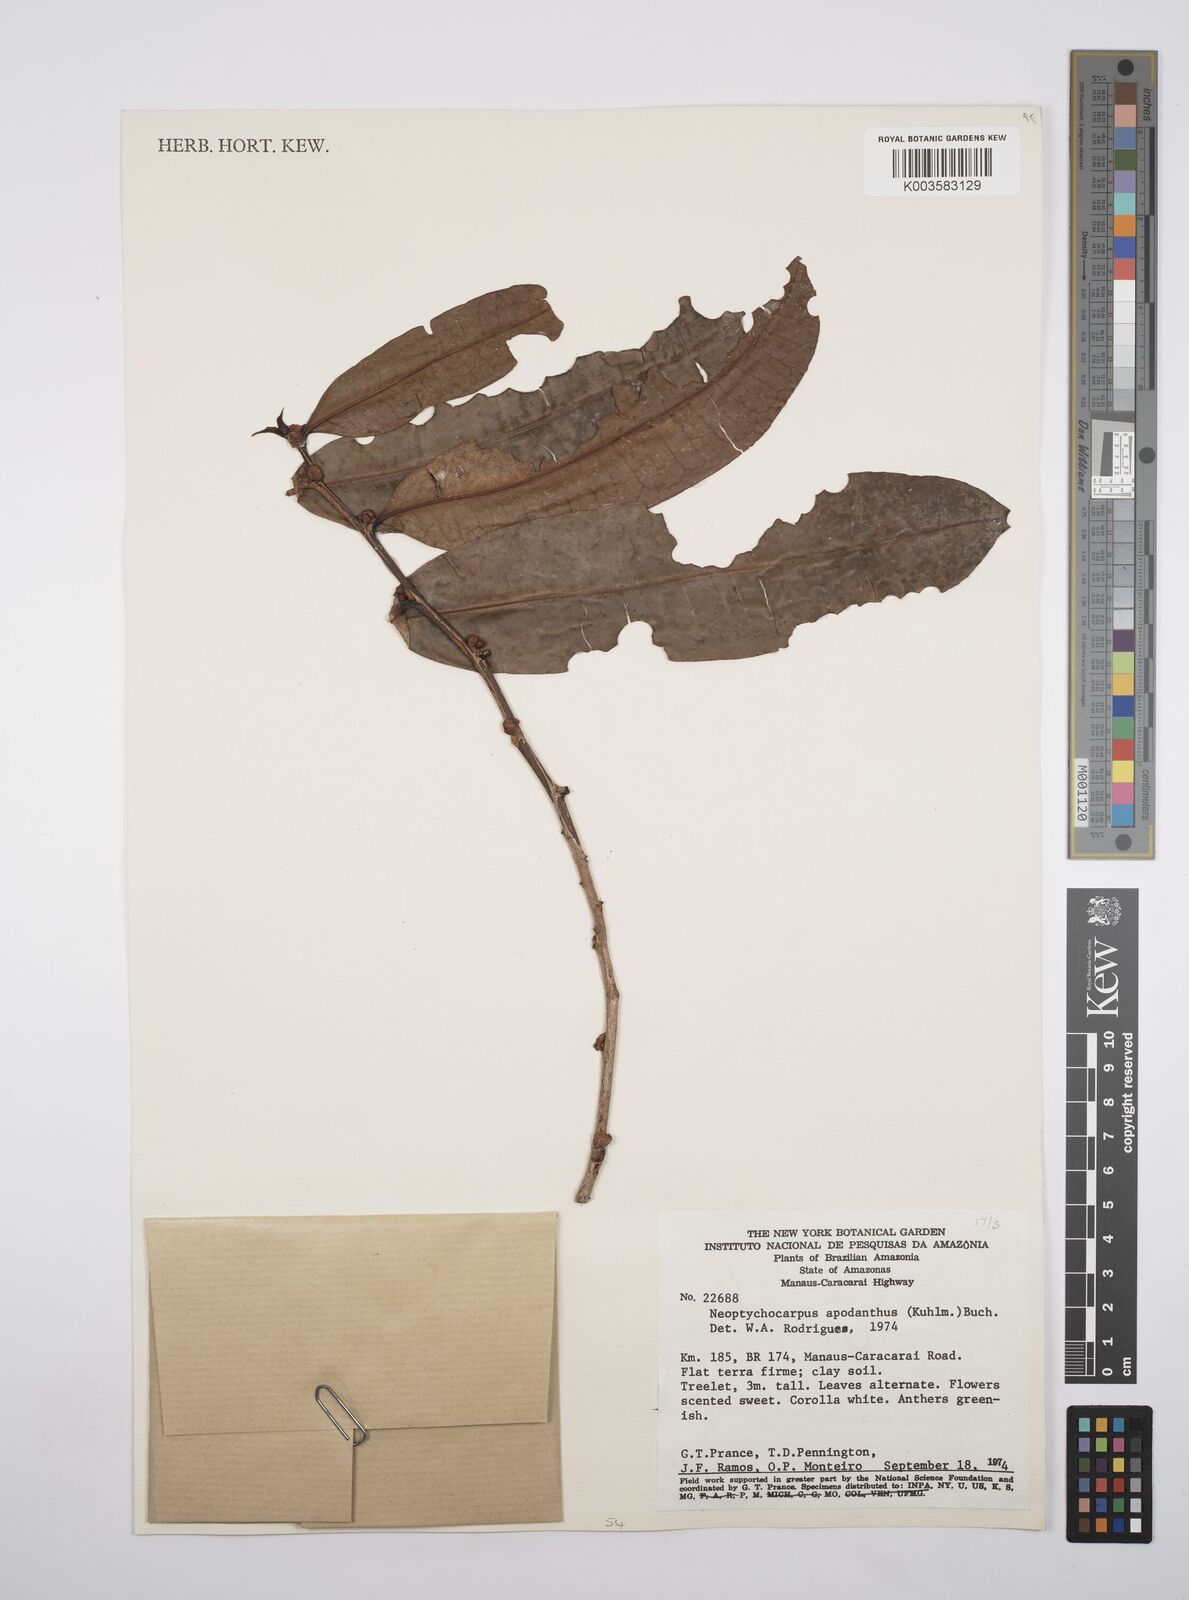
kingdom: Plantae
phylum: Tracheophyta
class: Magnoliopsida
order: Malpighiales
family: Salicaceae
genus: Casearia
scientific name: Casearia apodantha
